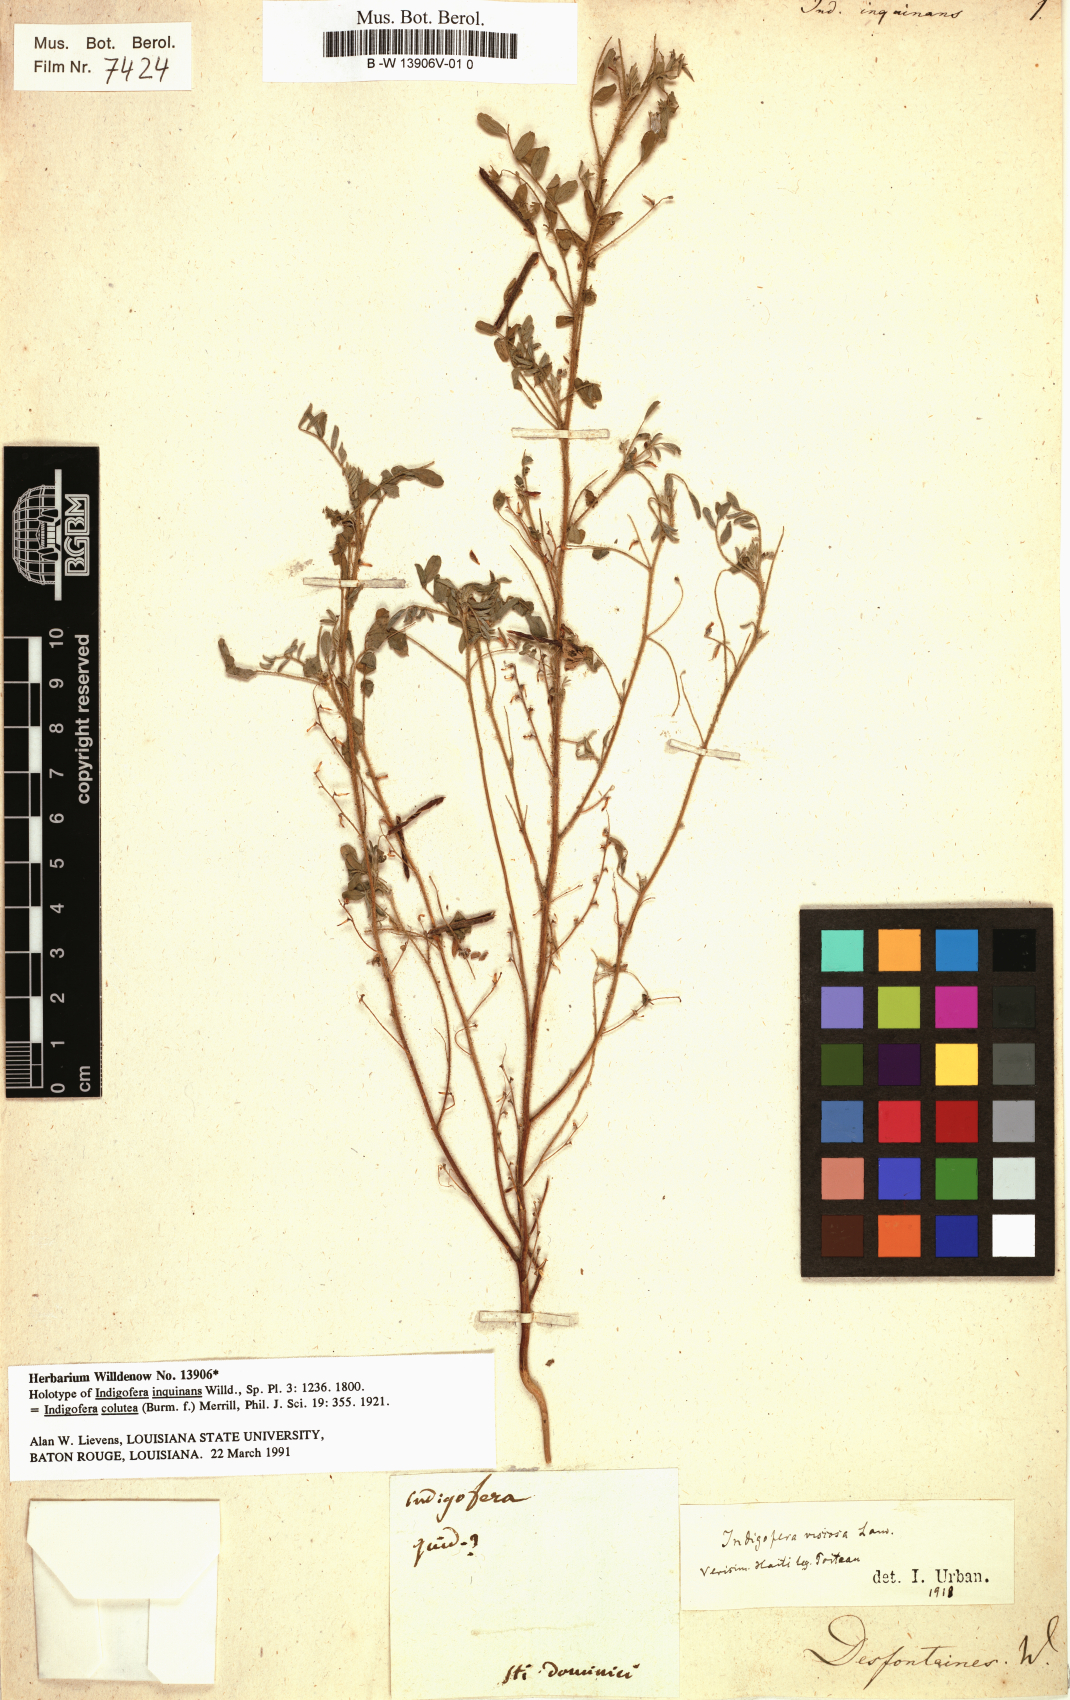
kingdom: Plantae
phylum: Tracheophyta
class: Magnoliopsida
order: Fabales
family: Fabaceae
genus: Indigofera
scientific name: Indigofera colutea
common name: Rusty indigo
